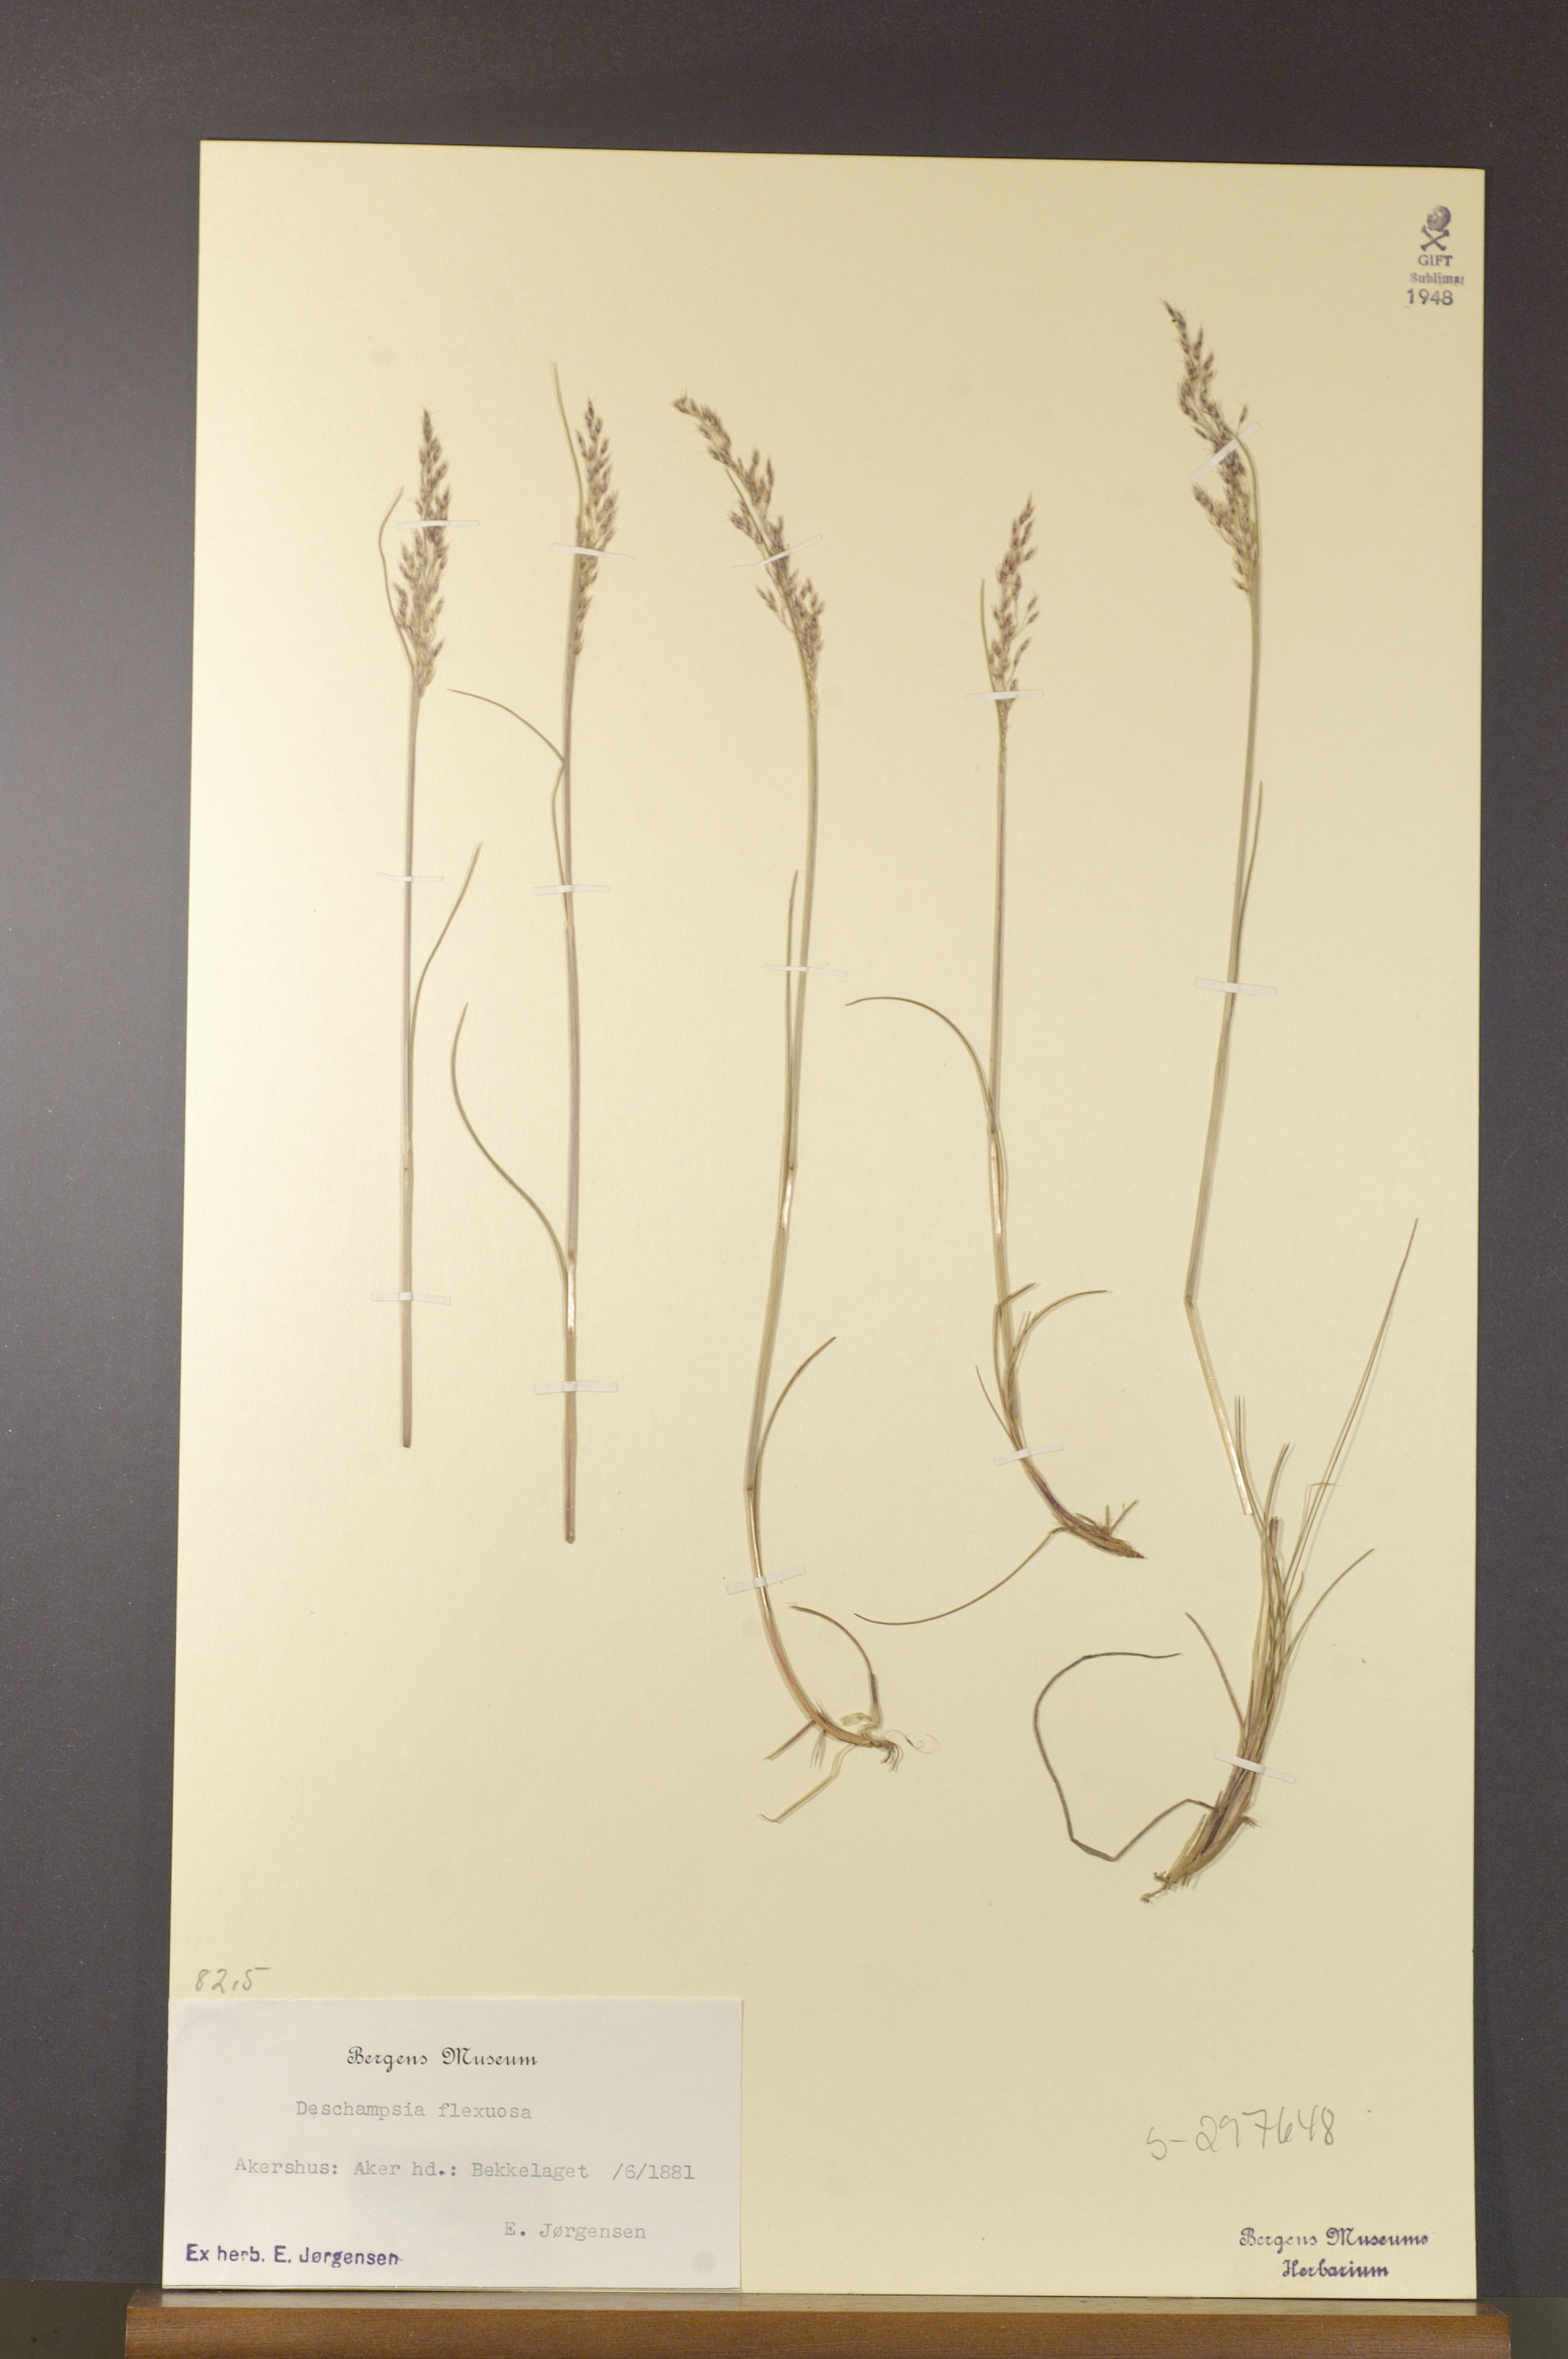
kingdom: Plantae
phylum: Tracheophyta
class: Liliopsida
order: Poales
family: Poaceae
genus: Avenella
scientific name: Avenella flexuosa
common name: Wavy hairgrass
